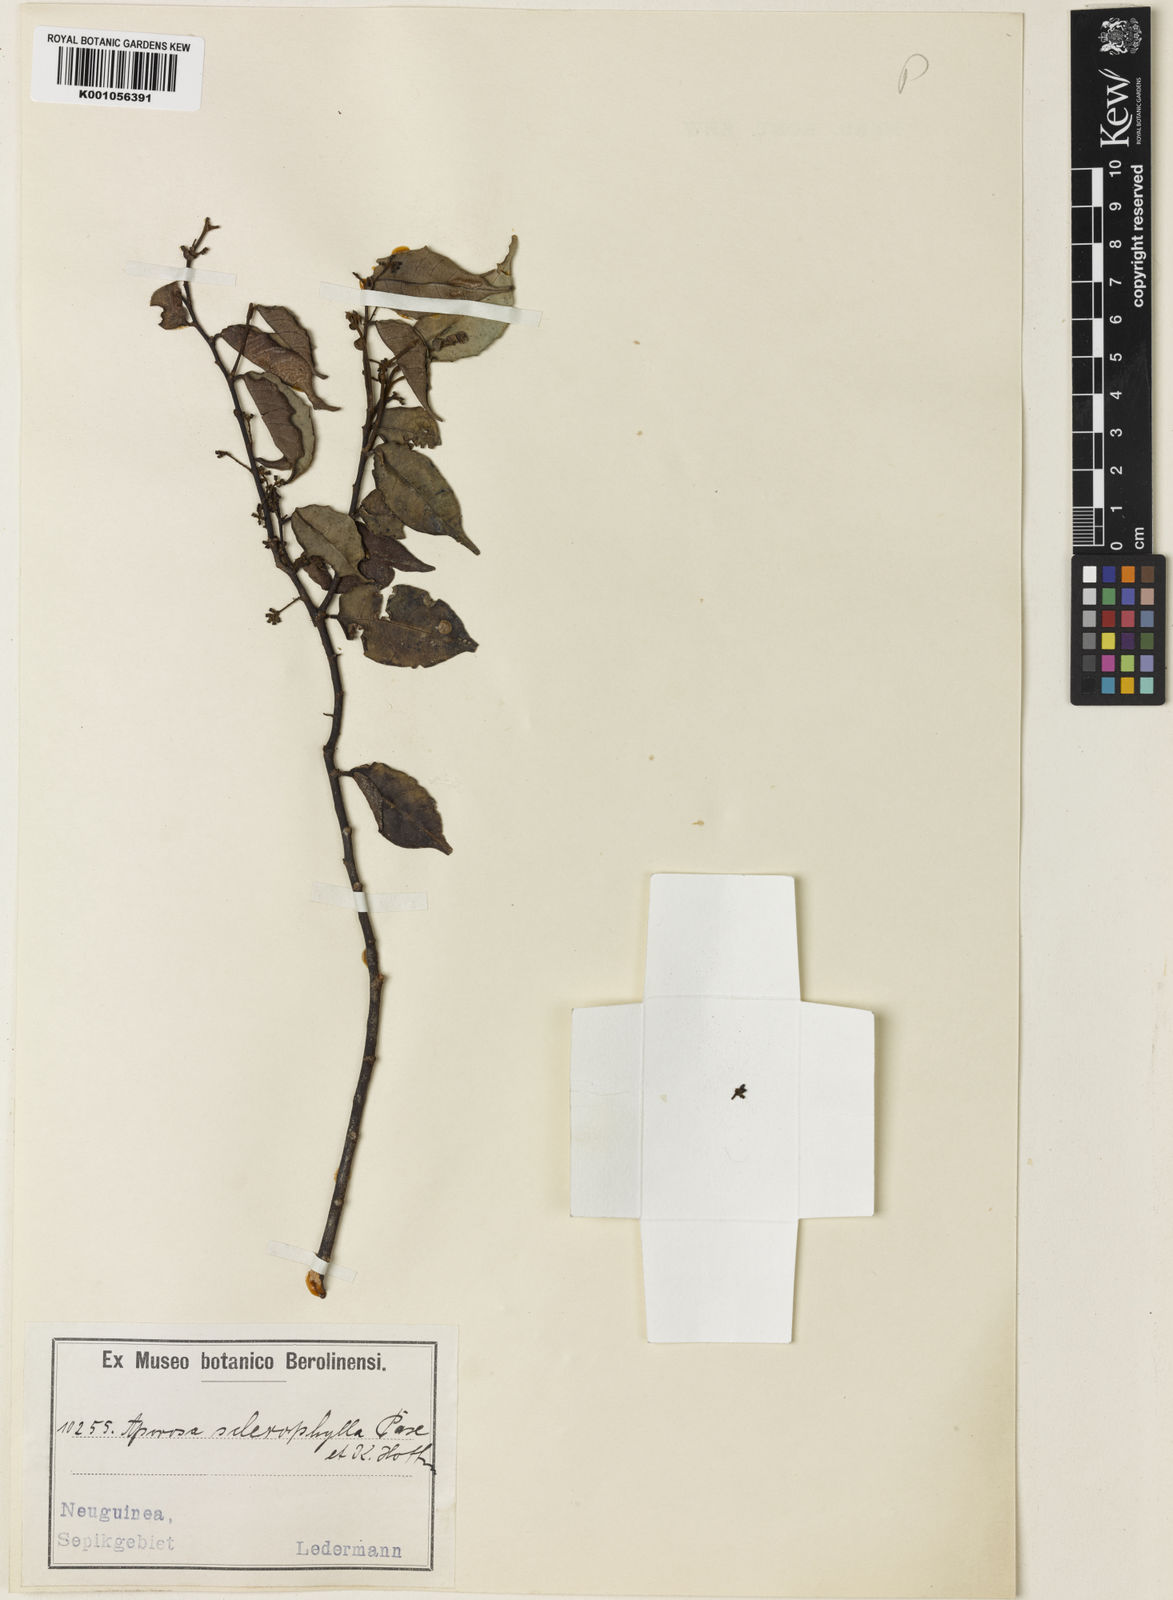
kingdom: Plantae
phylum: Tracheophyta
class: Magnoliopsida
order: Malpighiales
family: Phyllanthaceae
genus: Aporosa
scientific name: Aporosa sclerophylla
